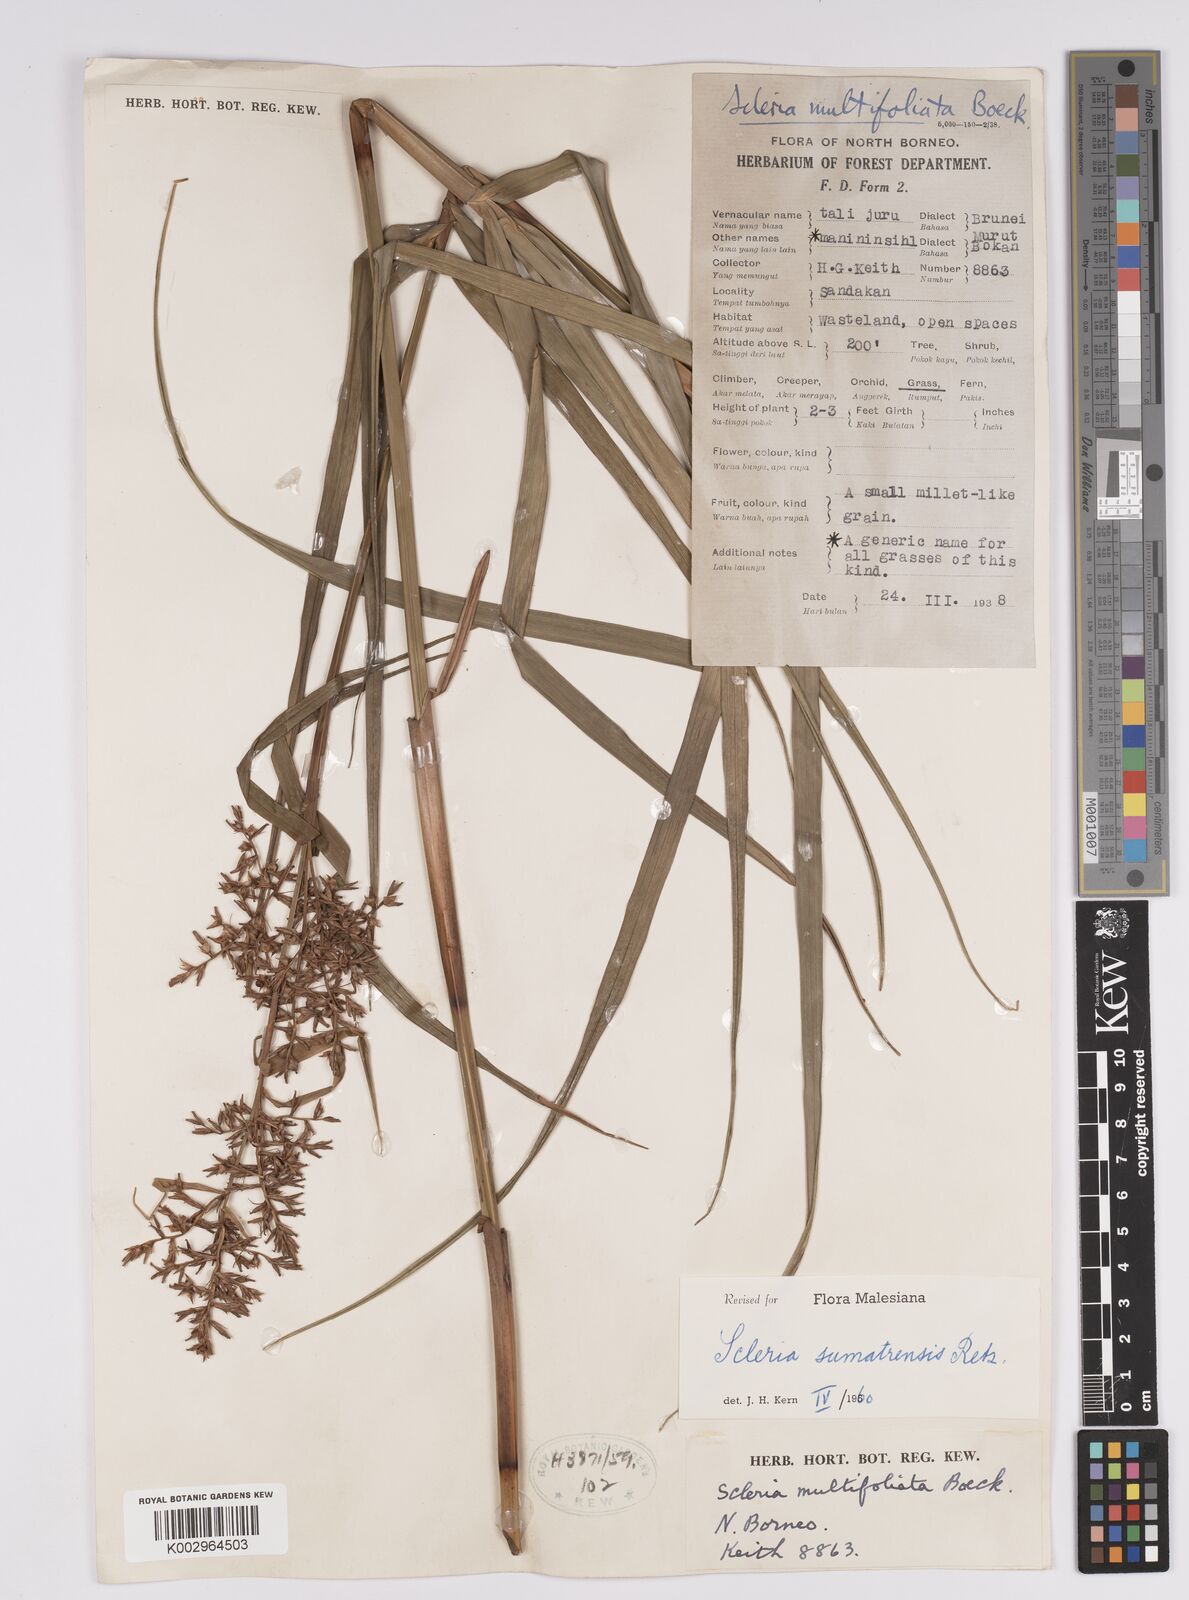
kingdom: Plantae
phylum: Tracheophyta
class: Liliopsida
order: Poales
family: Cyperaceae
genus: Scleria
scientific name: Scleria sumatrensis
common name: Sumatran scleria
